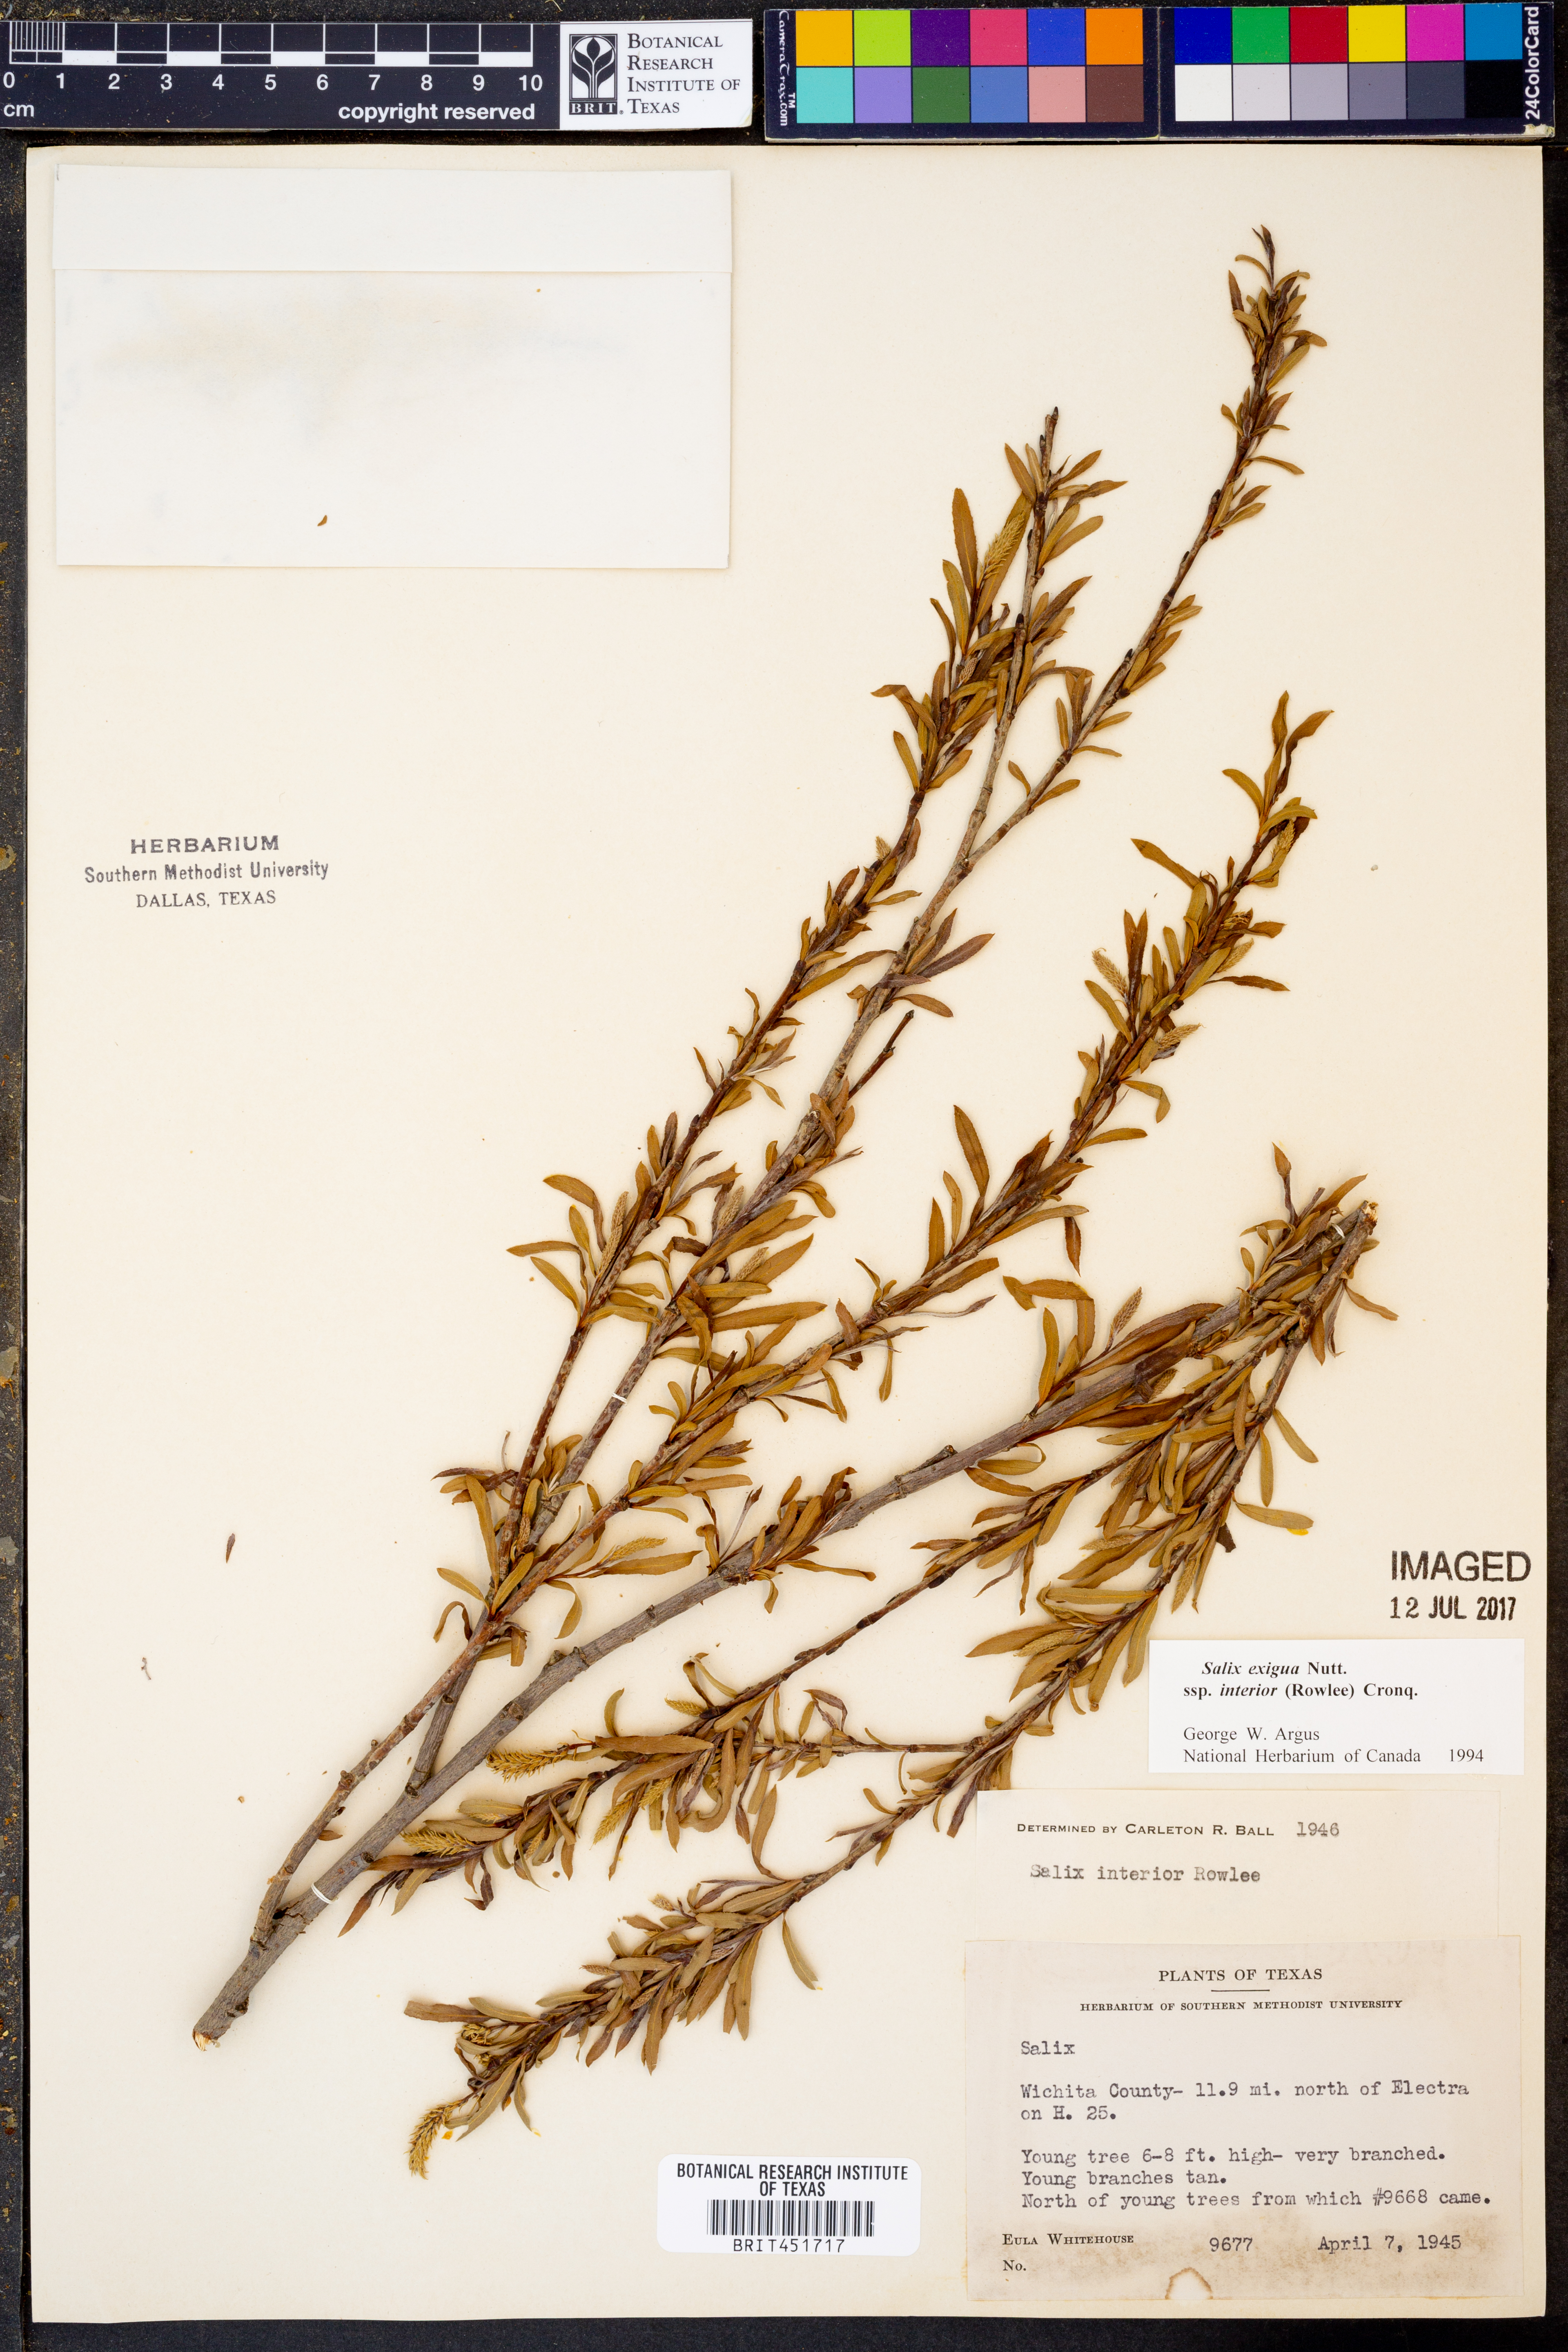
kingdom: Plantae
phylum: Tracheophyta
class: Magnoliopsida
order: Malpighiales
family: Salicaceae
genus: Salix
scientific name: Salix interior
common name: Sandbar willow
